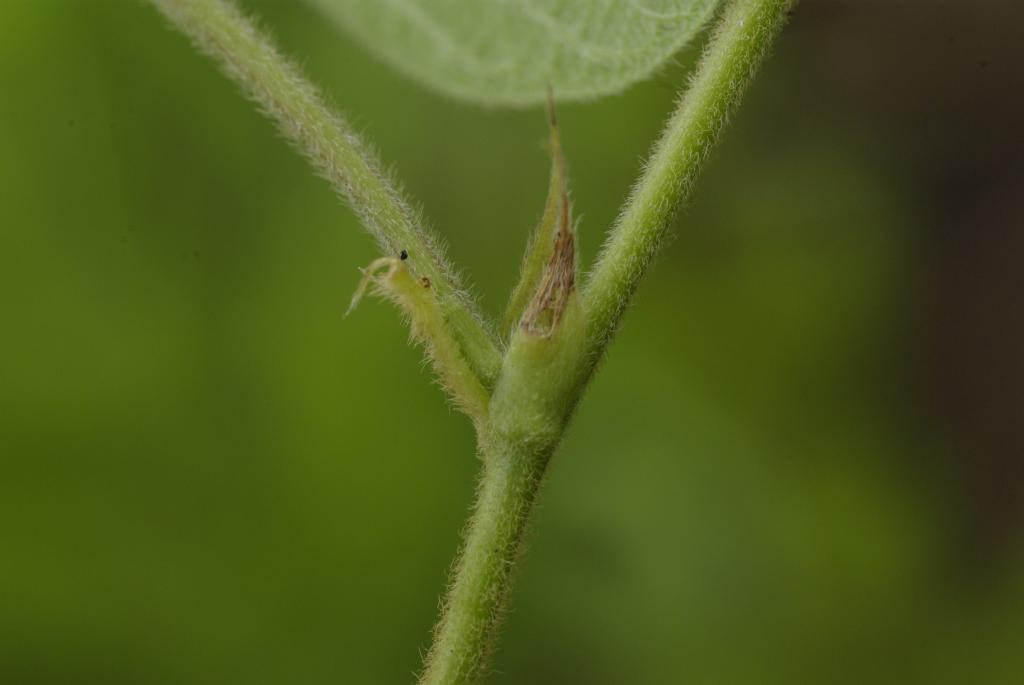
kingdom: Plantae
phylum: Tracheophyta
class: Magnoliopsida
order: Fabales
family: Fabaceae
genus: Pycnospora
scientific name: Pycnospora lutescens
